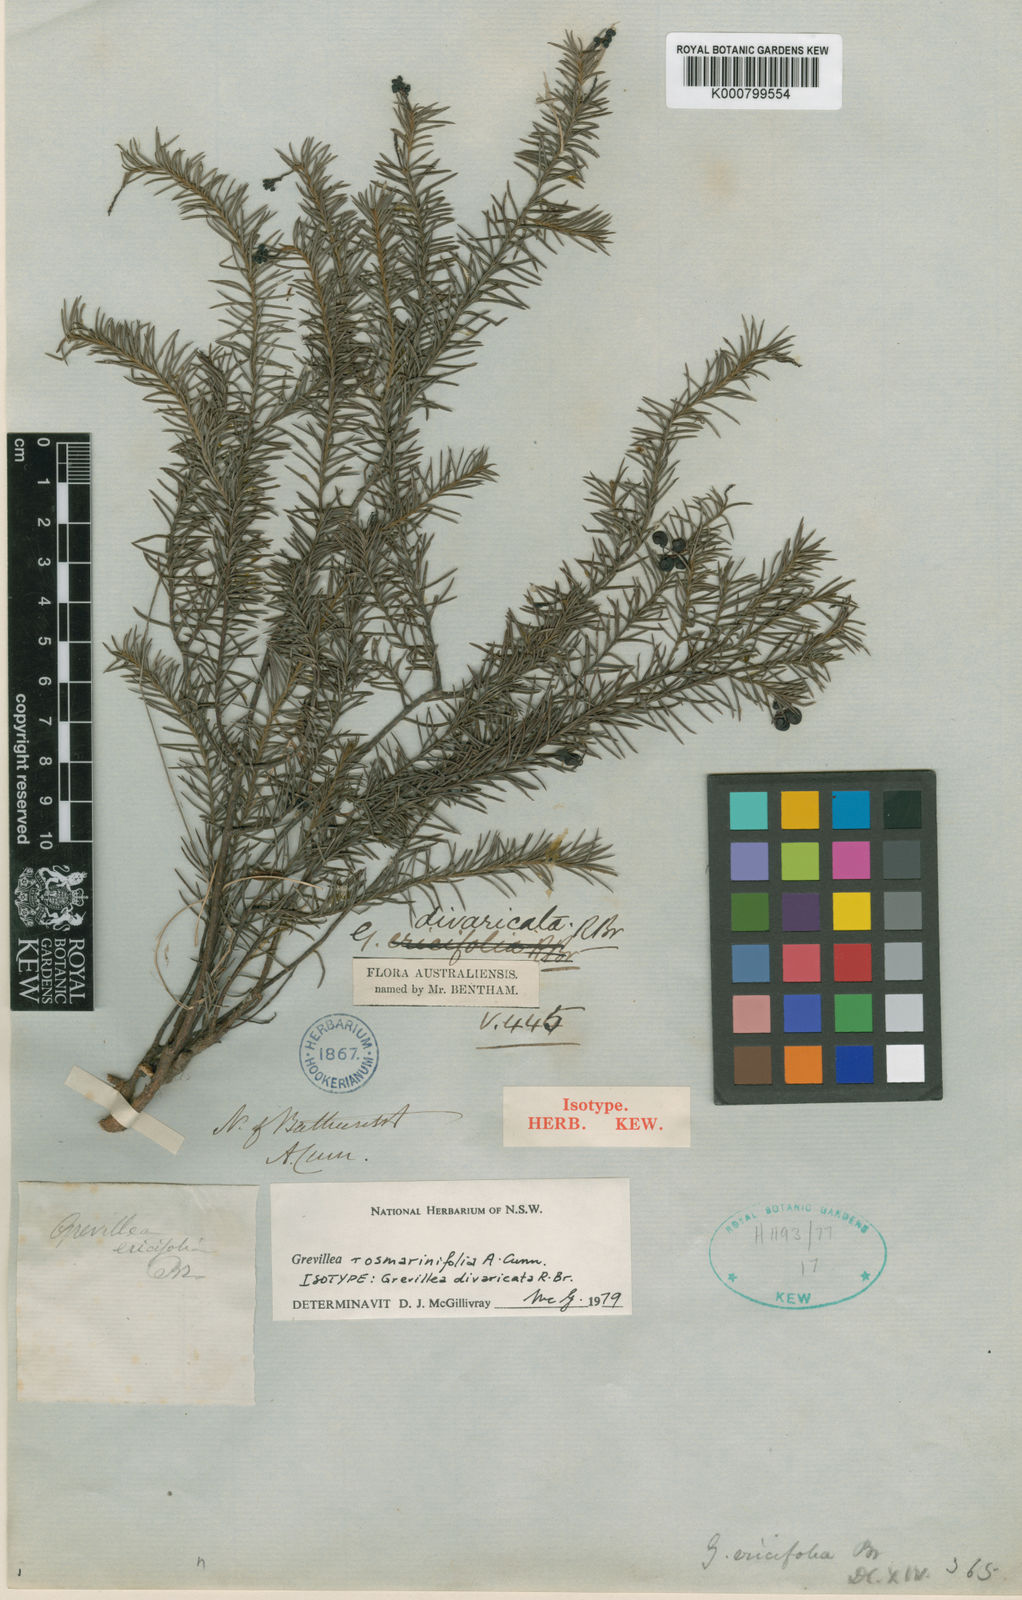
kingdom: Plantae
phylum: Tracheophyta
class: Magnoliopsida
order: Proteales
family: Proteaceae
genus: Grevillea
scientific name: Grevillea divaricata
